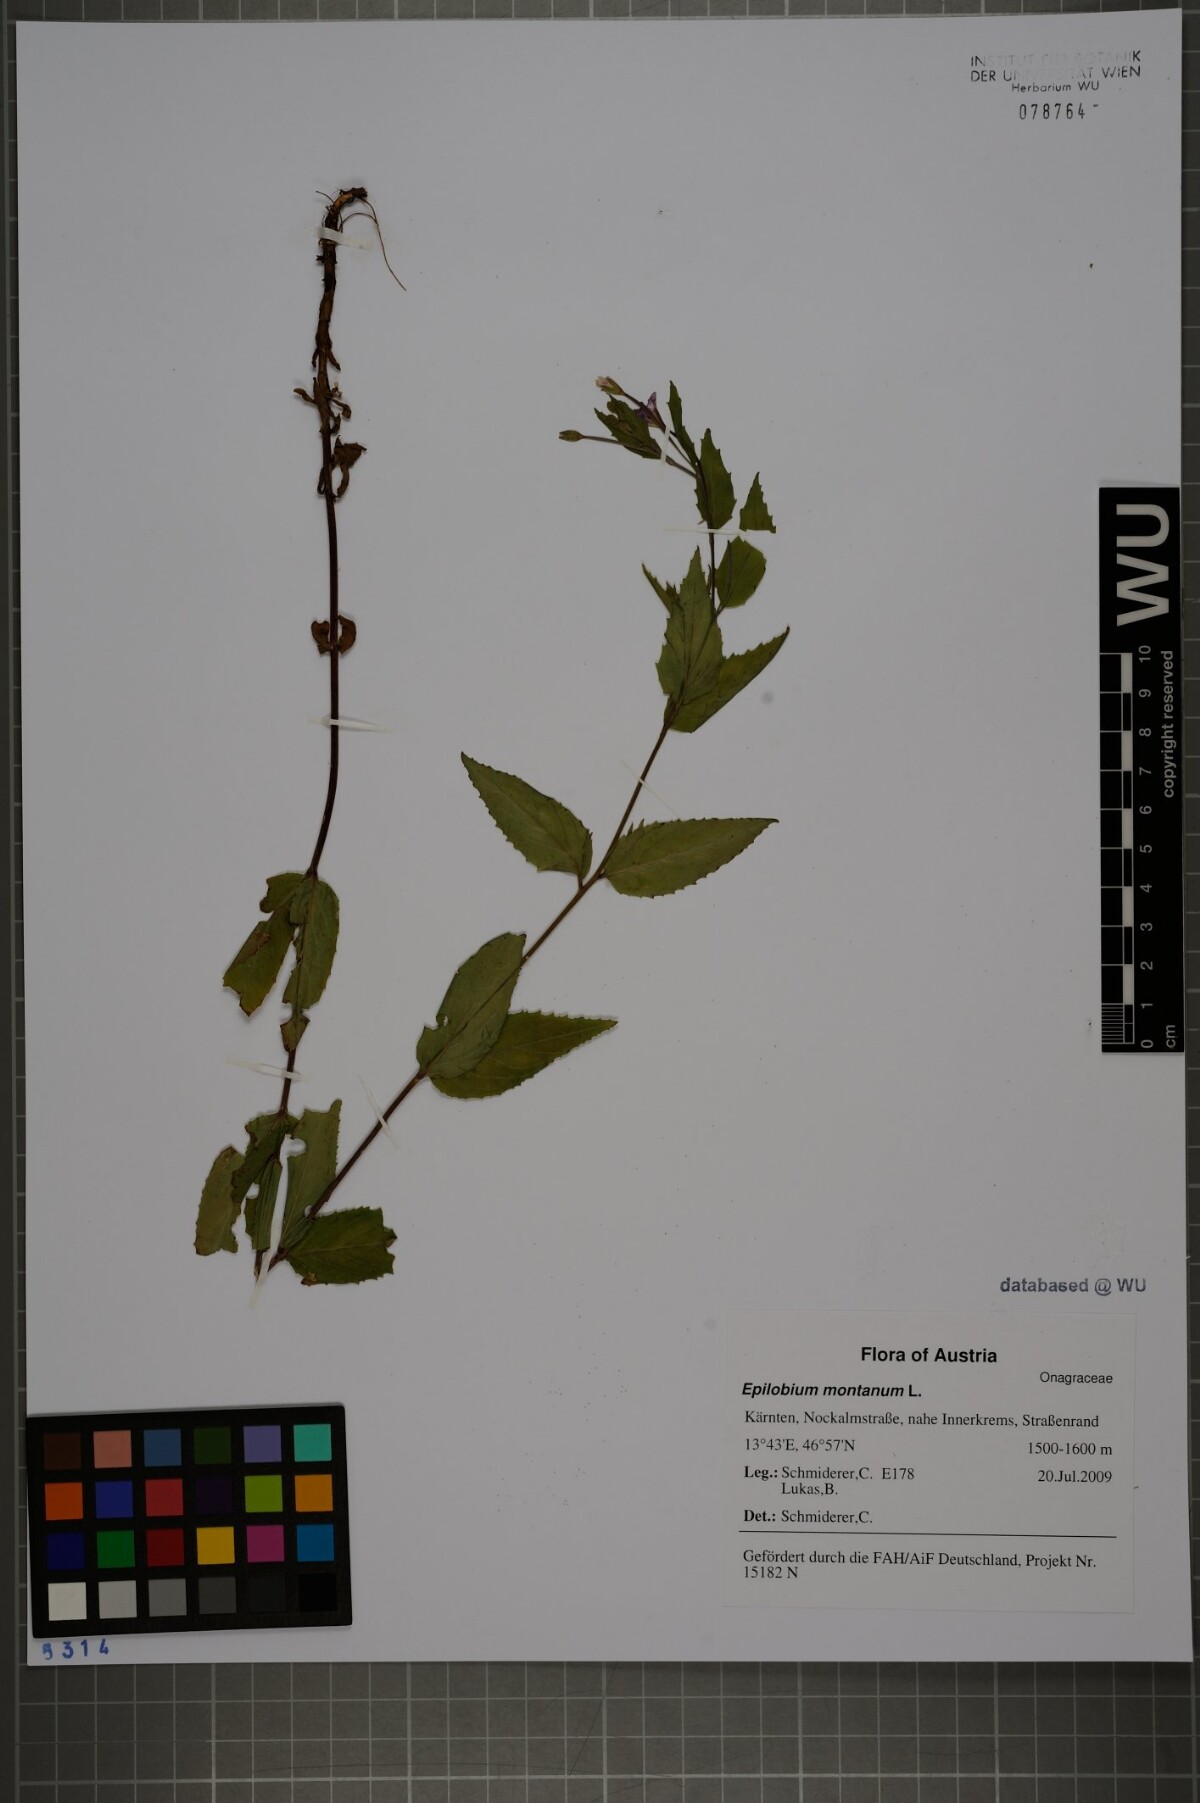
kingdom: Plantae
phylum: Tracheophyta
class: Magnoliopsida
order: Myrtales
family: Onagraceae
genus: Epilobium
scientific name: Epilobium montanum
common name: Broad-leaved willowherb
